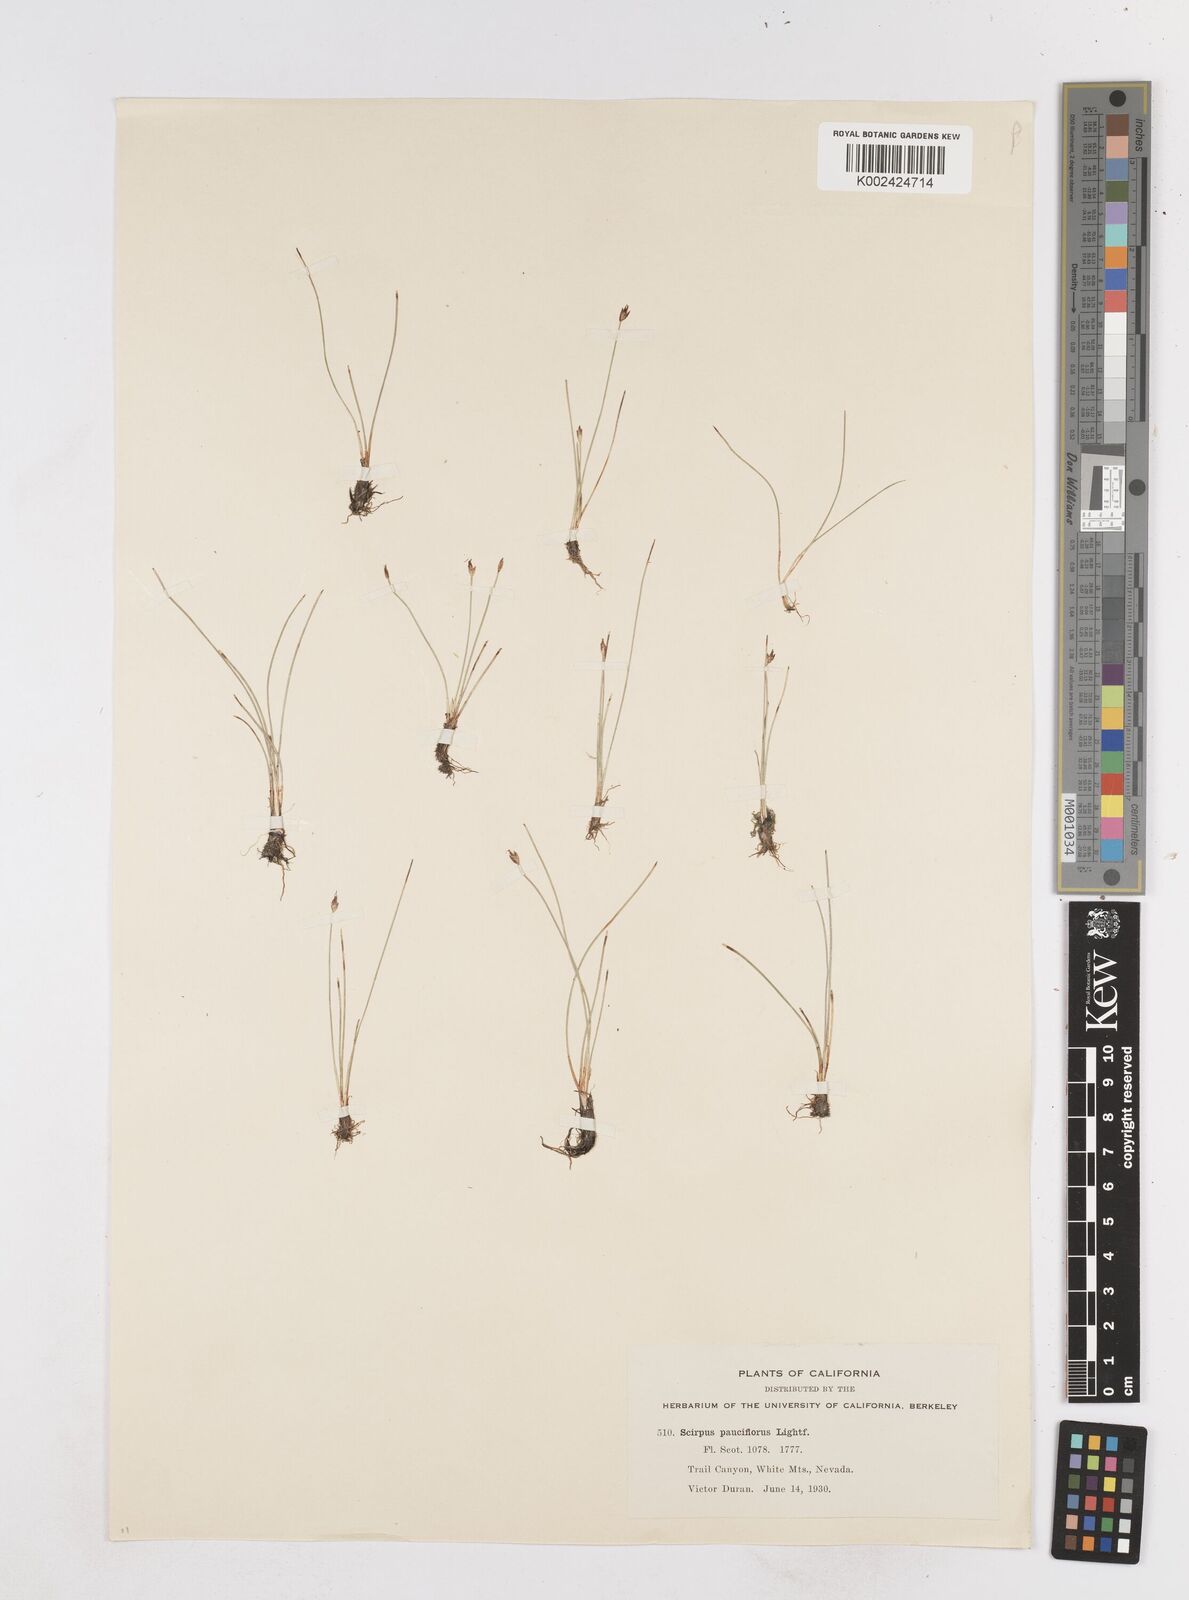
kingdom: Plantae
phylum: Tracheophyta
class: Liliopsida
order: Poales
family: Cyperaceae
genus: Eleocharis
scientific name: Eleocharis quinqueflora
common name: Few-flowered spike-rush
